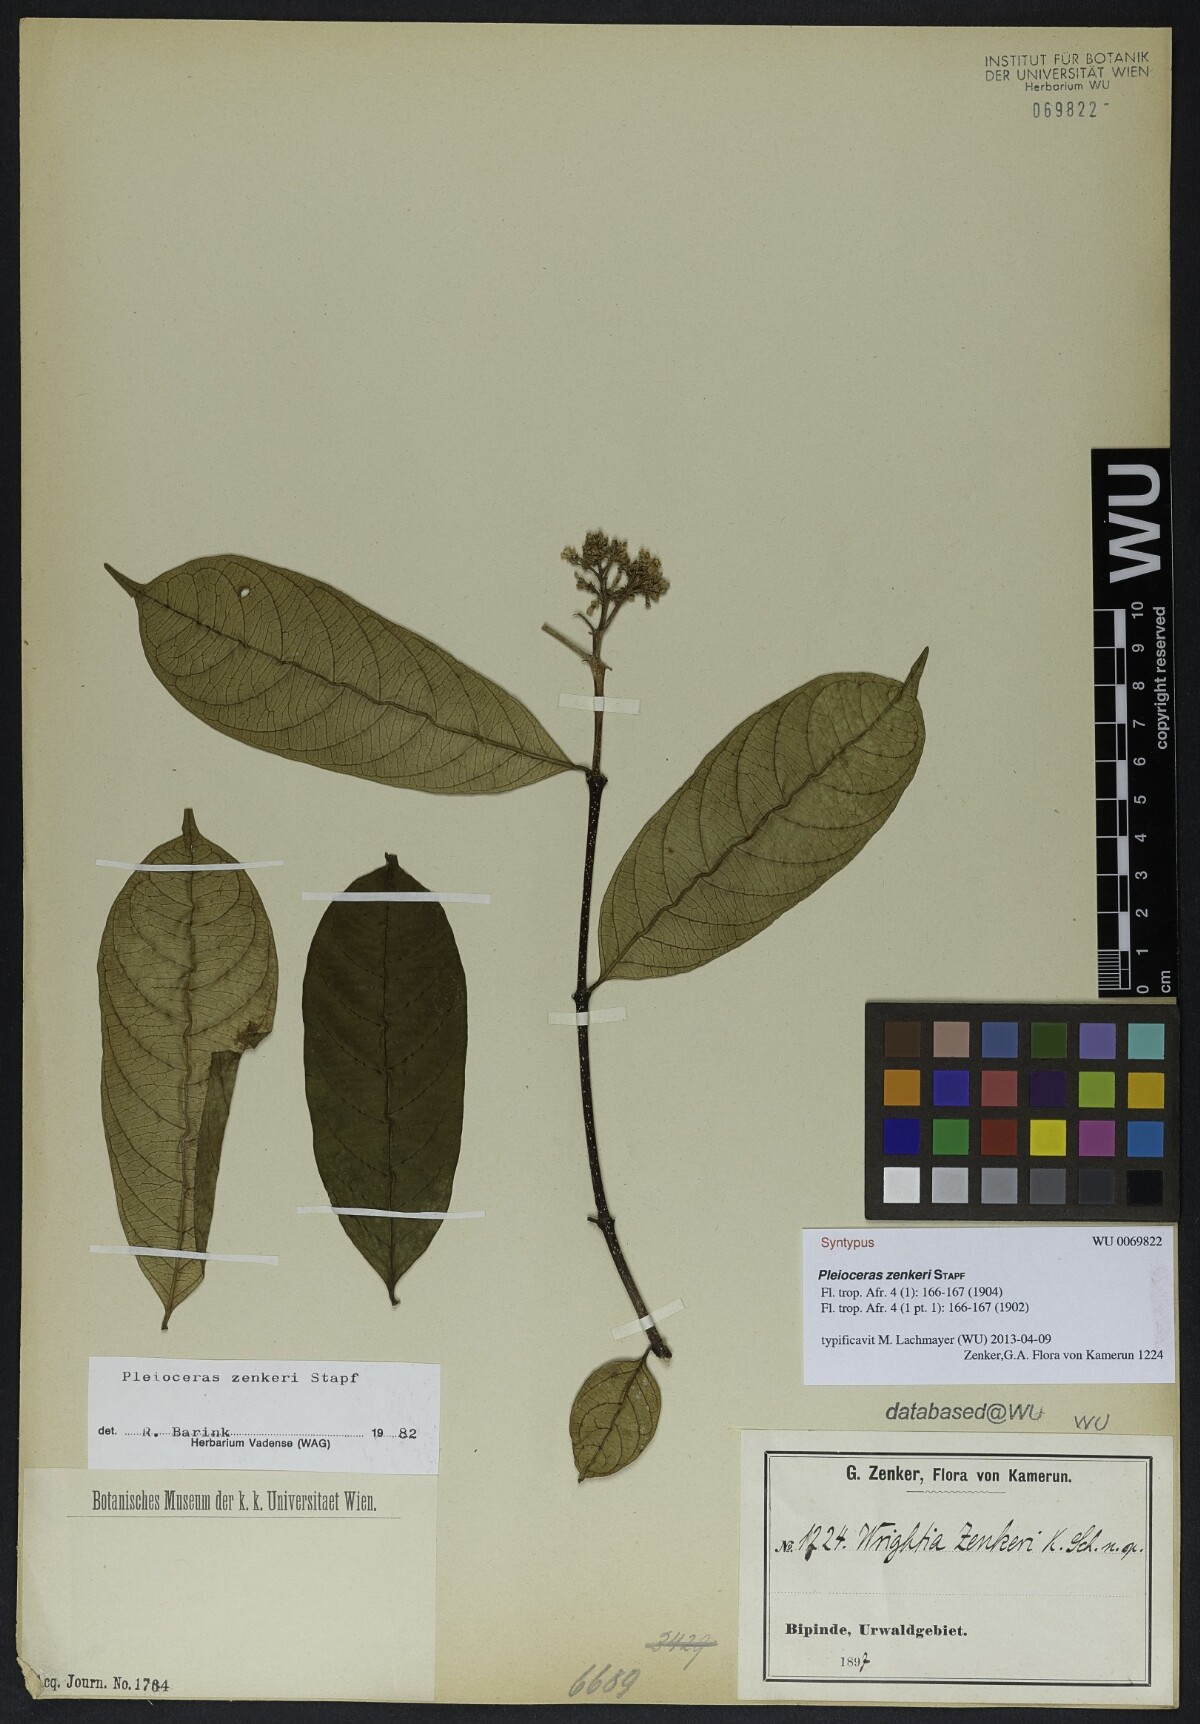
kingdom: Plantae
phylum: Tracheophyta
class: Magnoliopsida
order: Gentianales
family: Apocynaceae
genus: Pleioceras
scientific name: Pleioceras zenkeri
